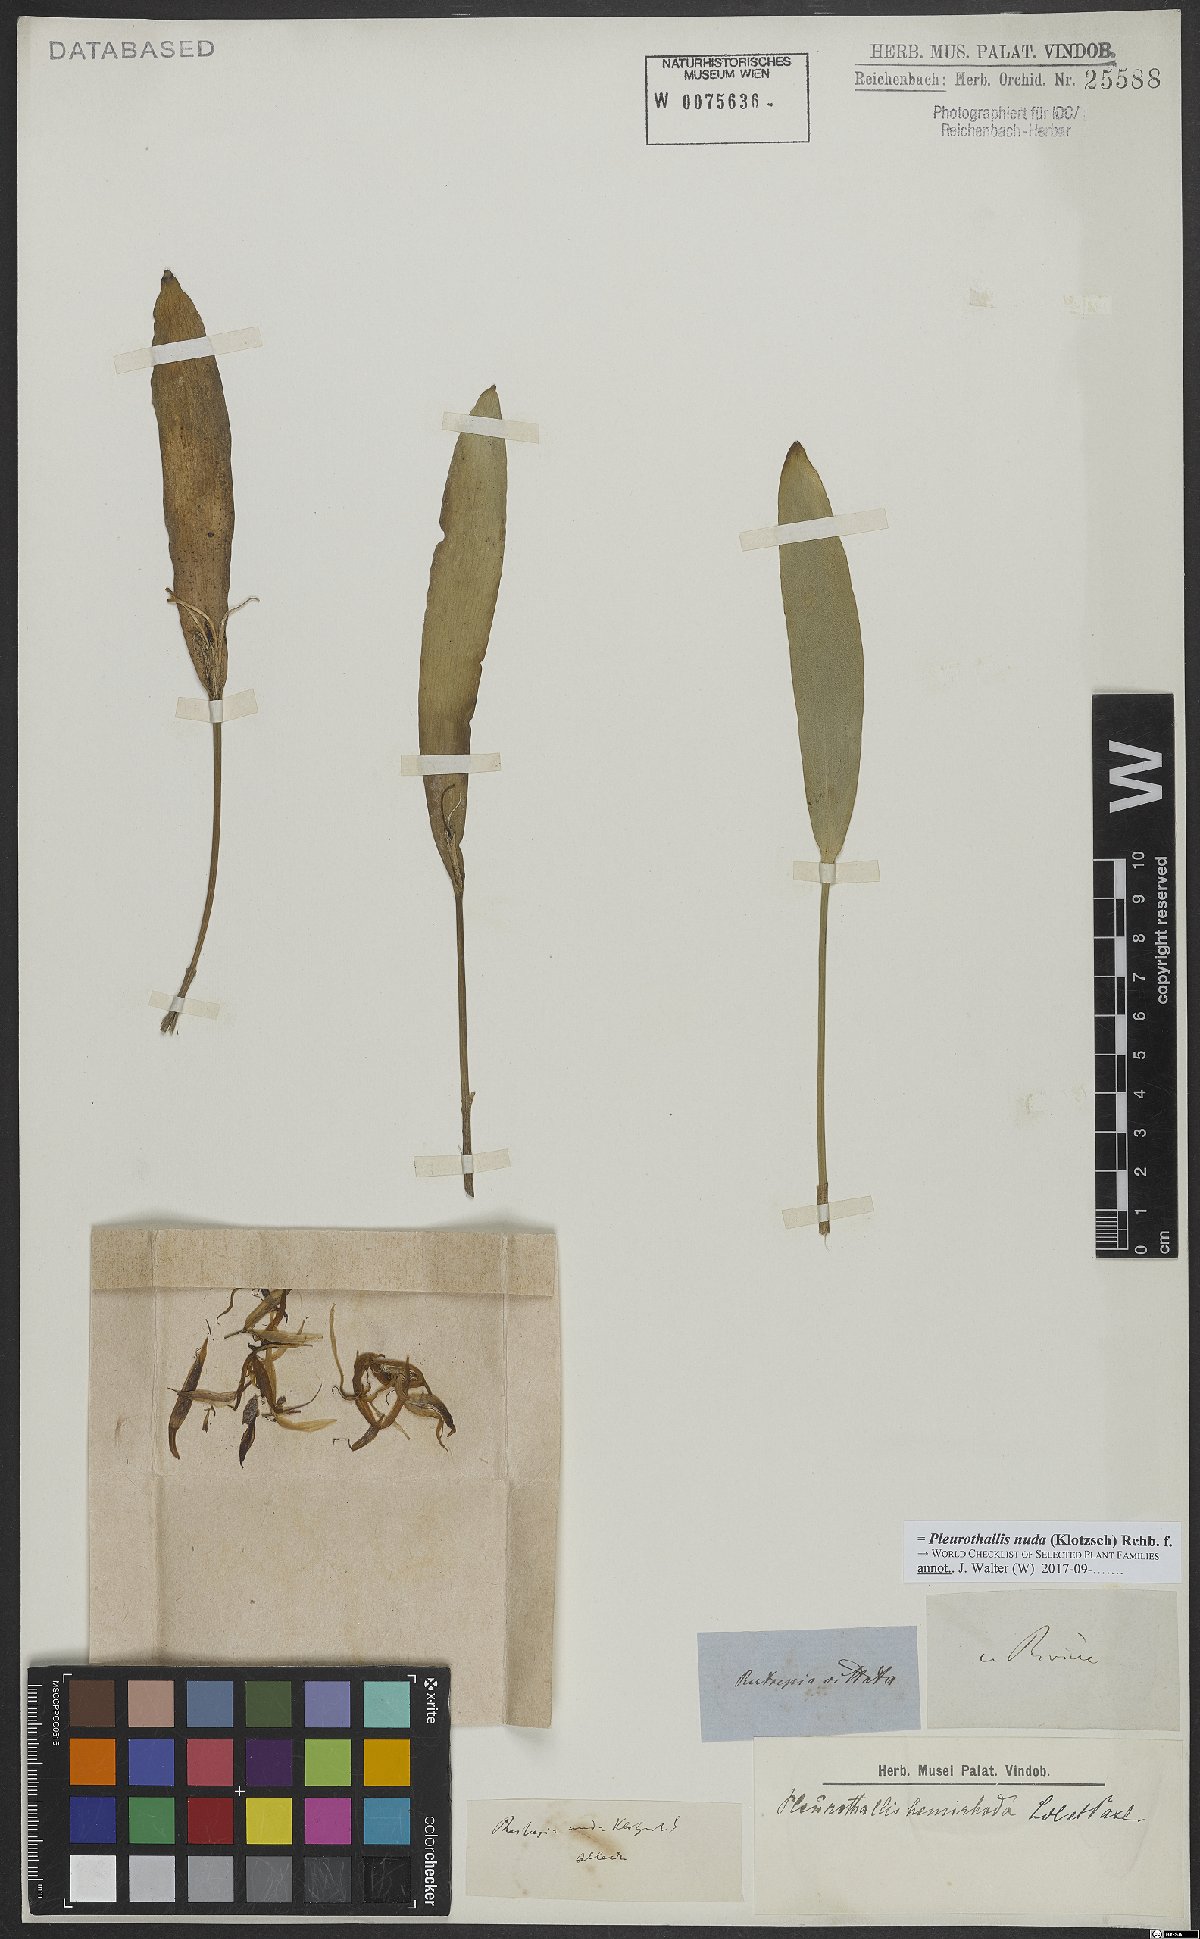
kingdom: Plantae
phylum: Tracheophyta
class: Liliopsida
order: Asparagales
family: Orchidaceae
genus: Pleurothallis
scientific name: Pleurothallis nuda
